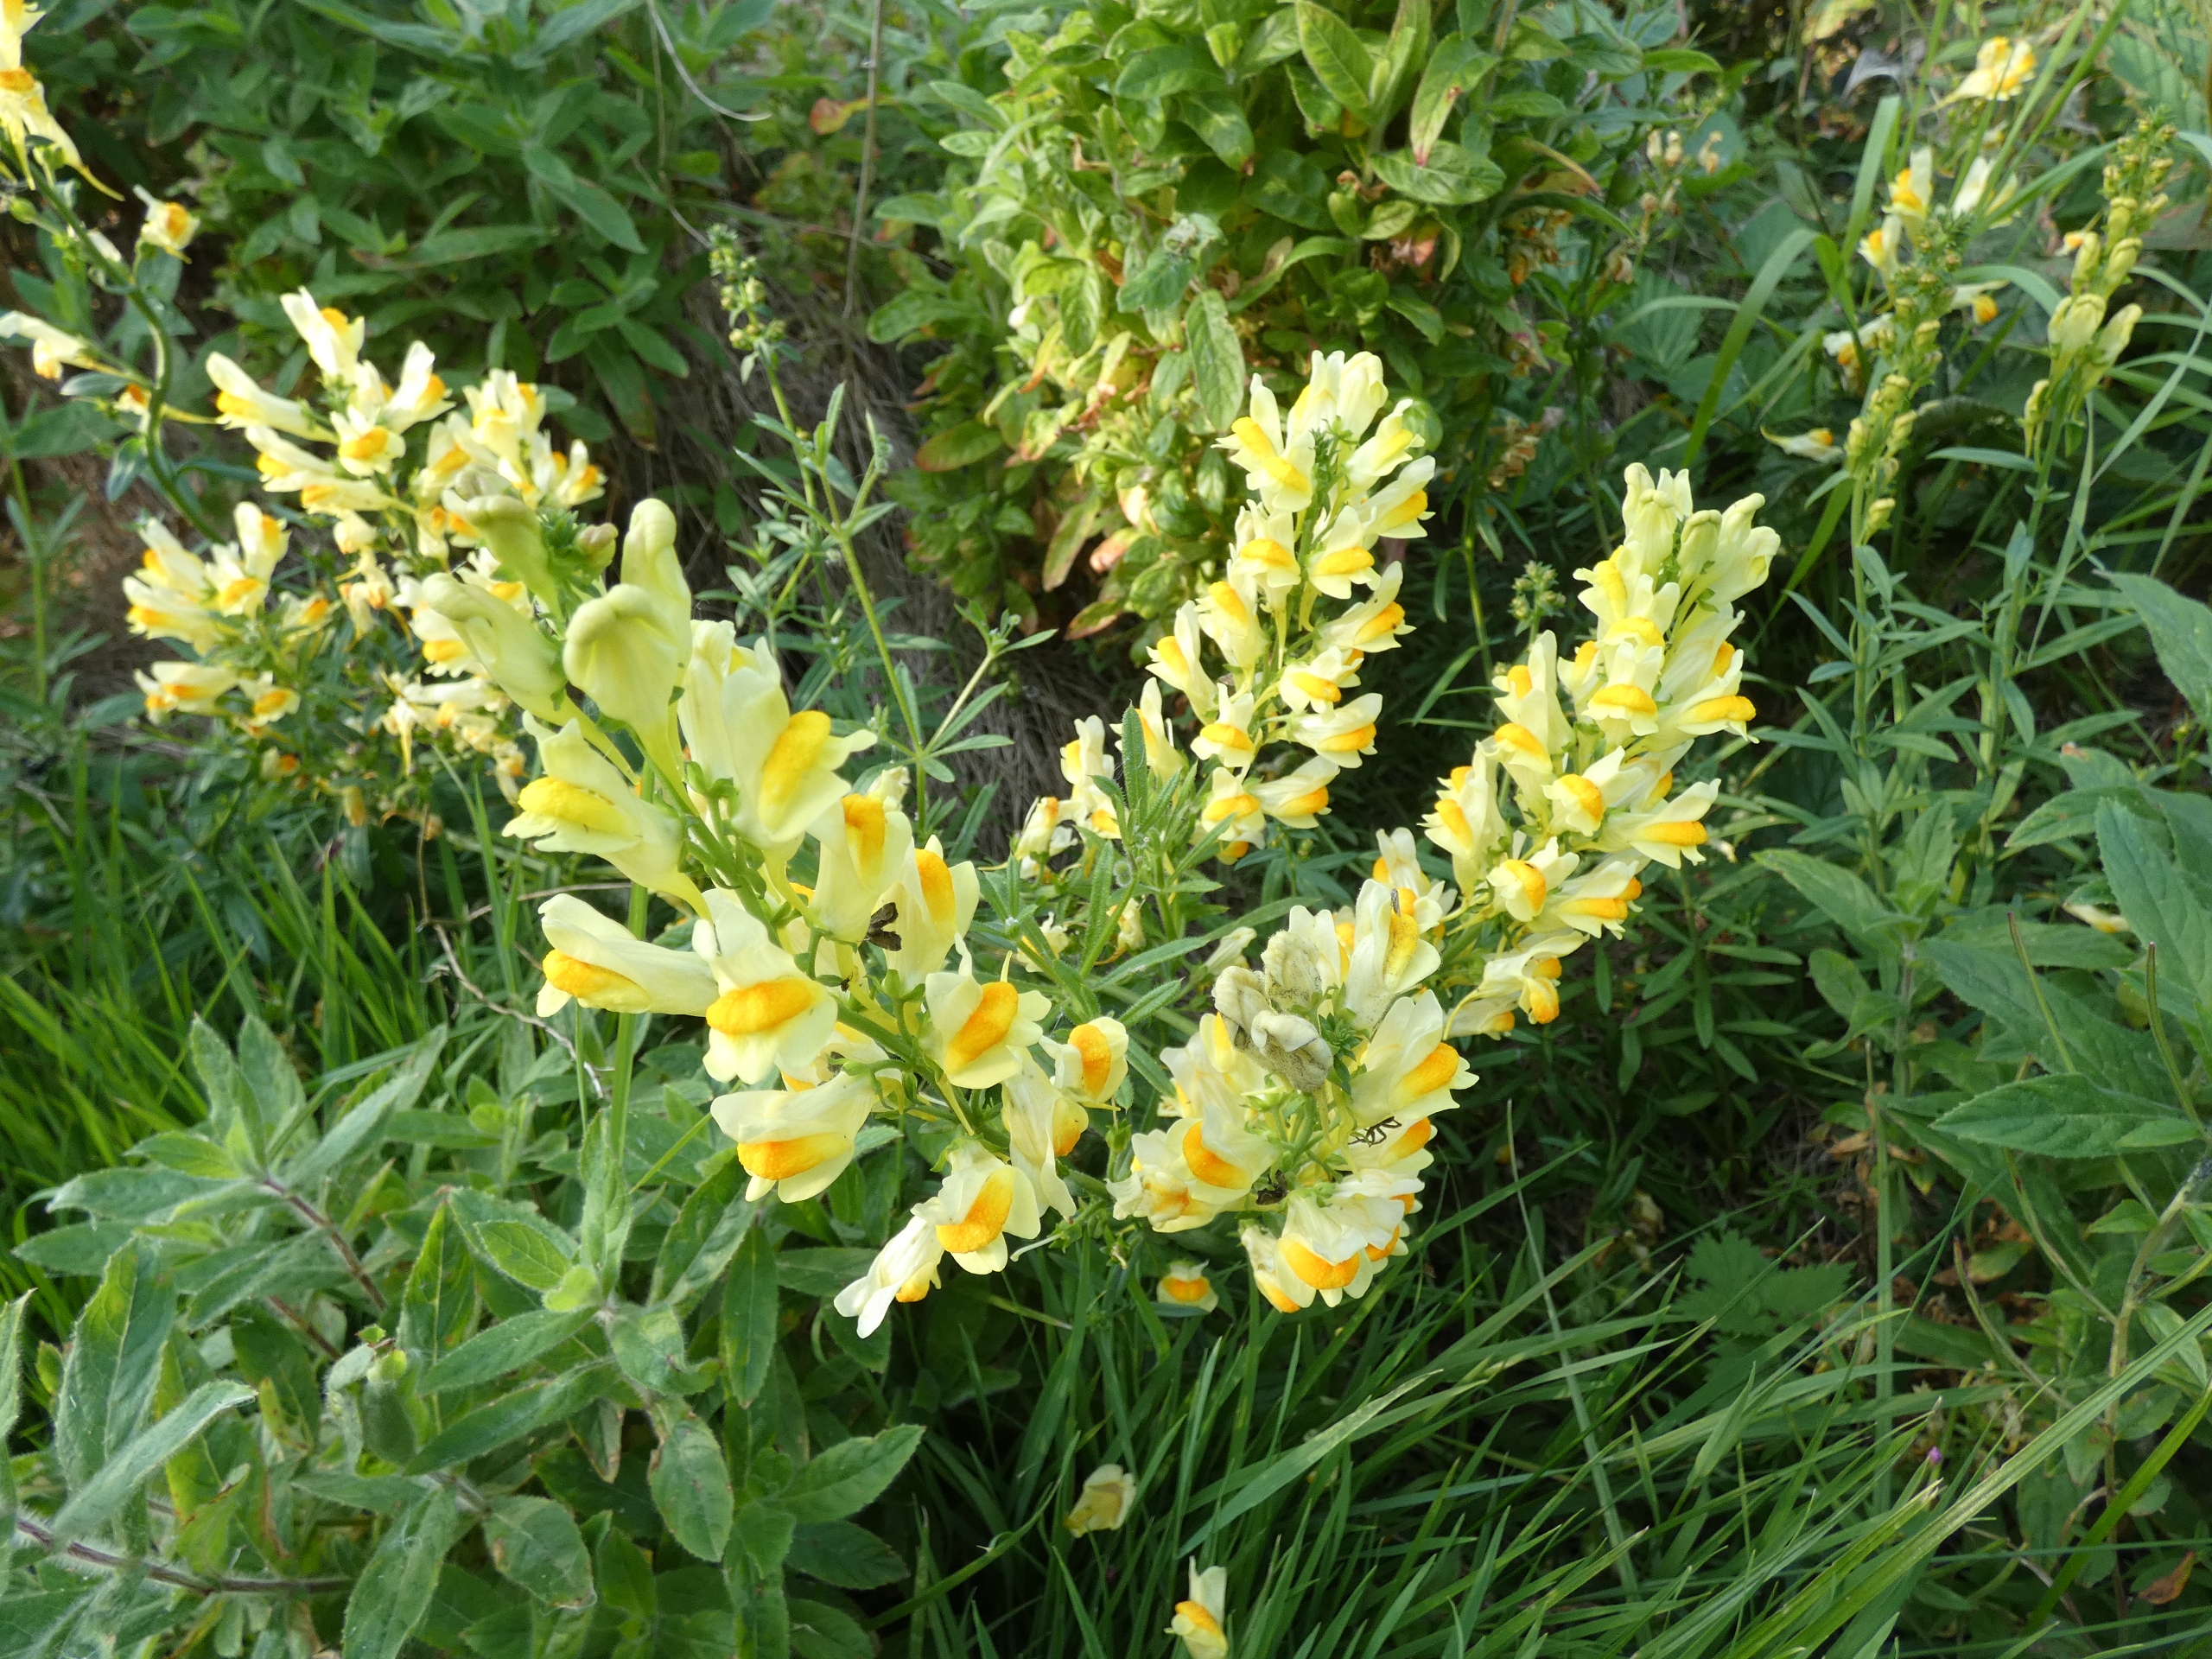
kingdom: Plantae
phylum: Tracheophyta
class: Magnoliopsida
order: Lamiales
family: Plantaginaceae
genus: Linaria
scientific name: Linaria vulgaris
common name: Almindelig torskemund
